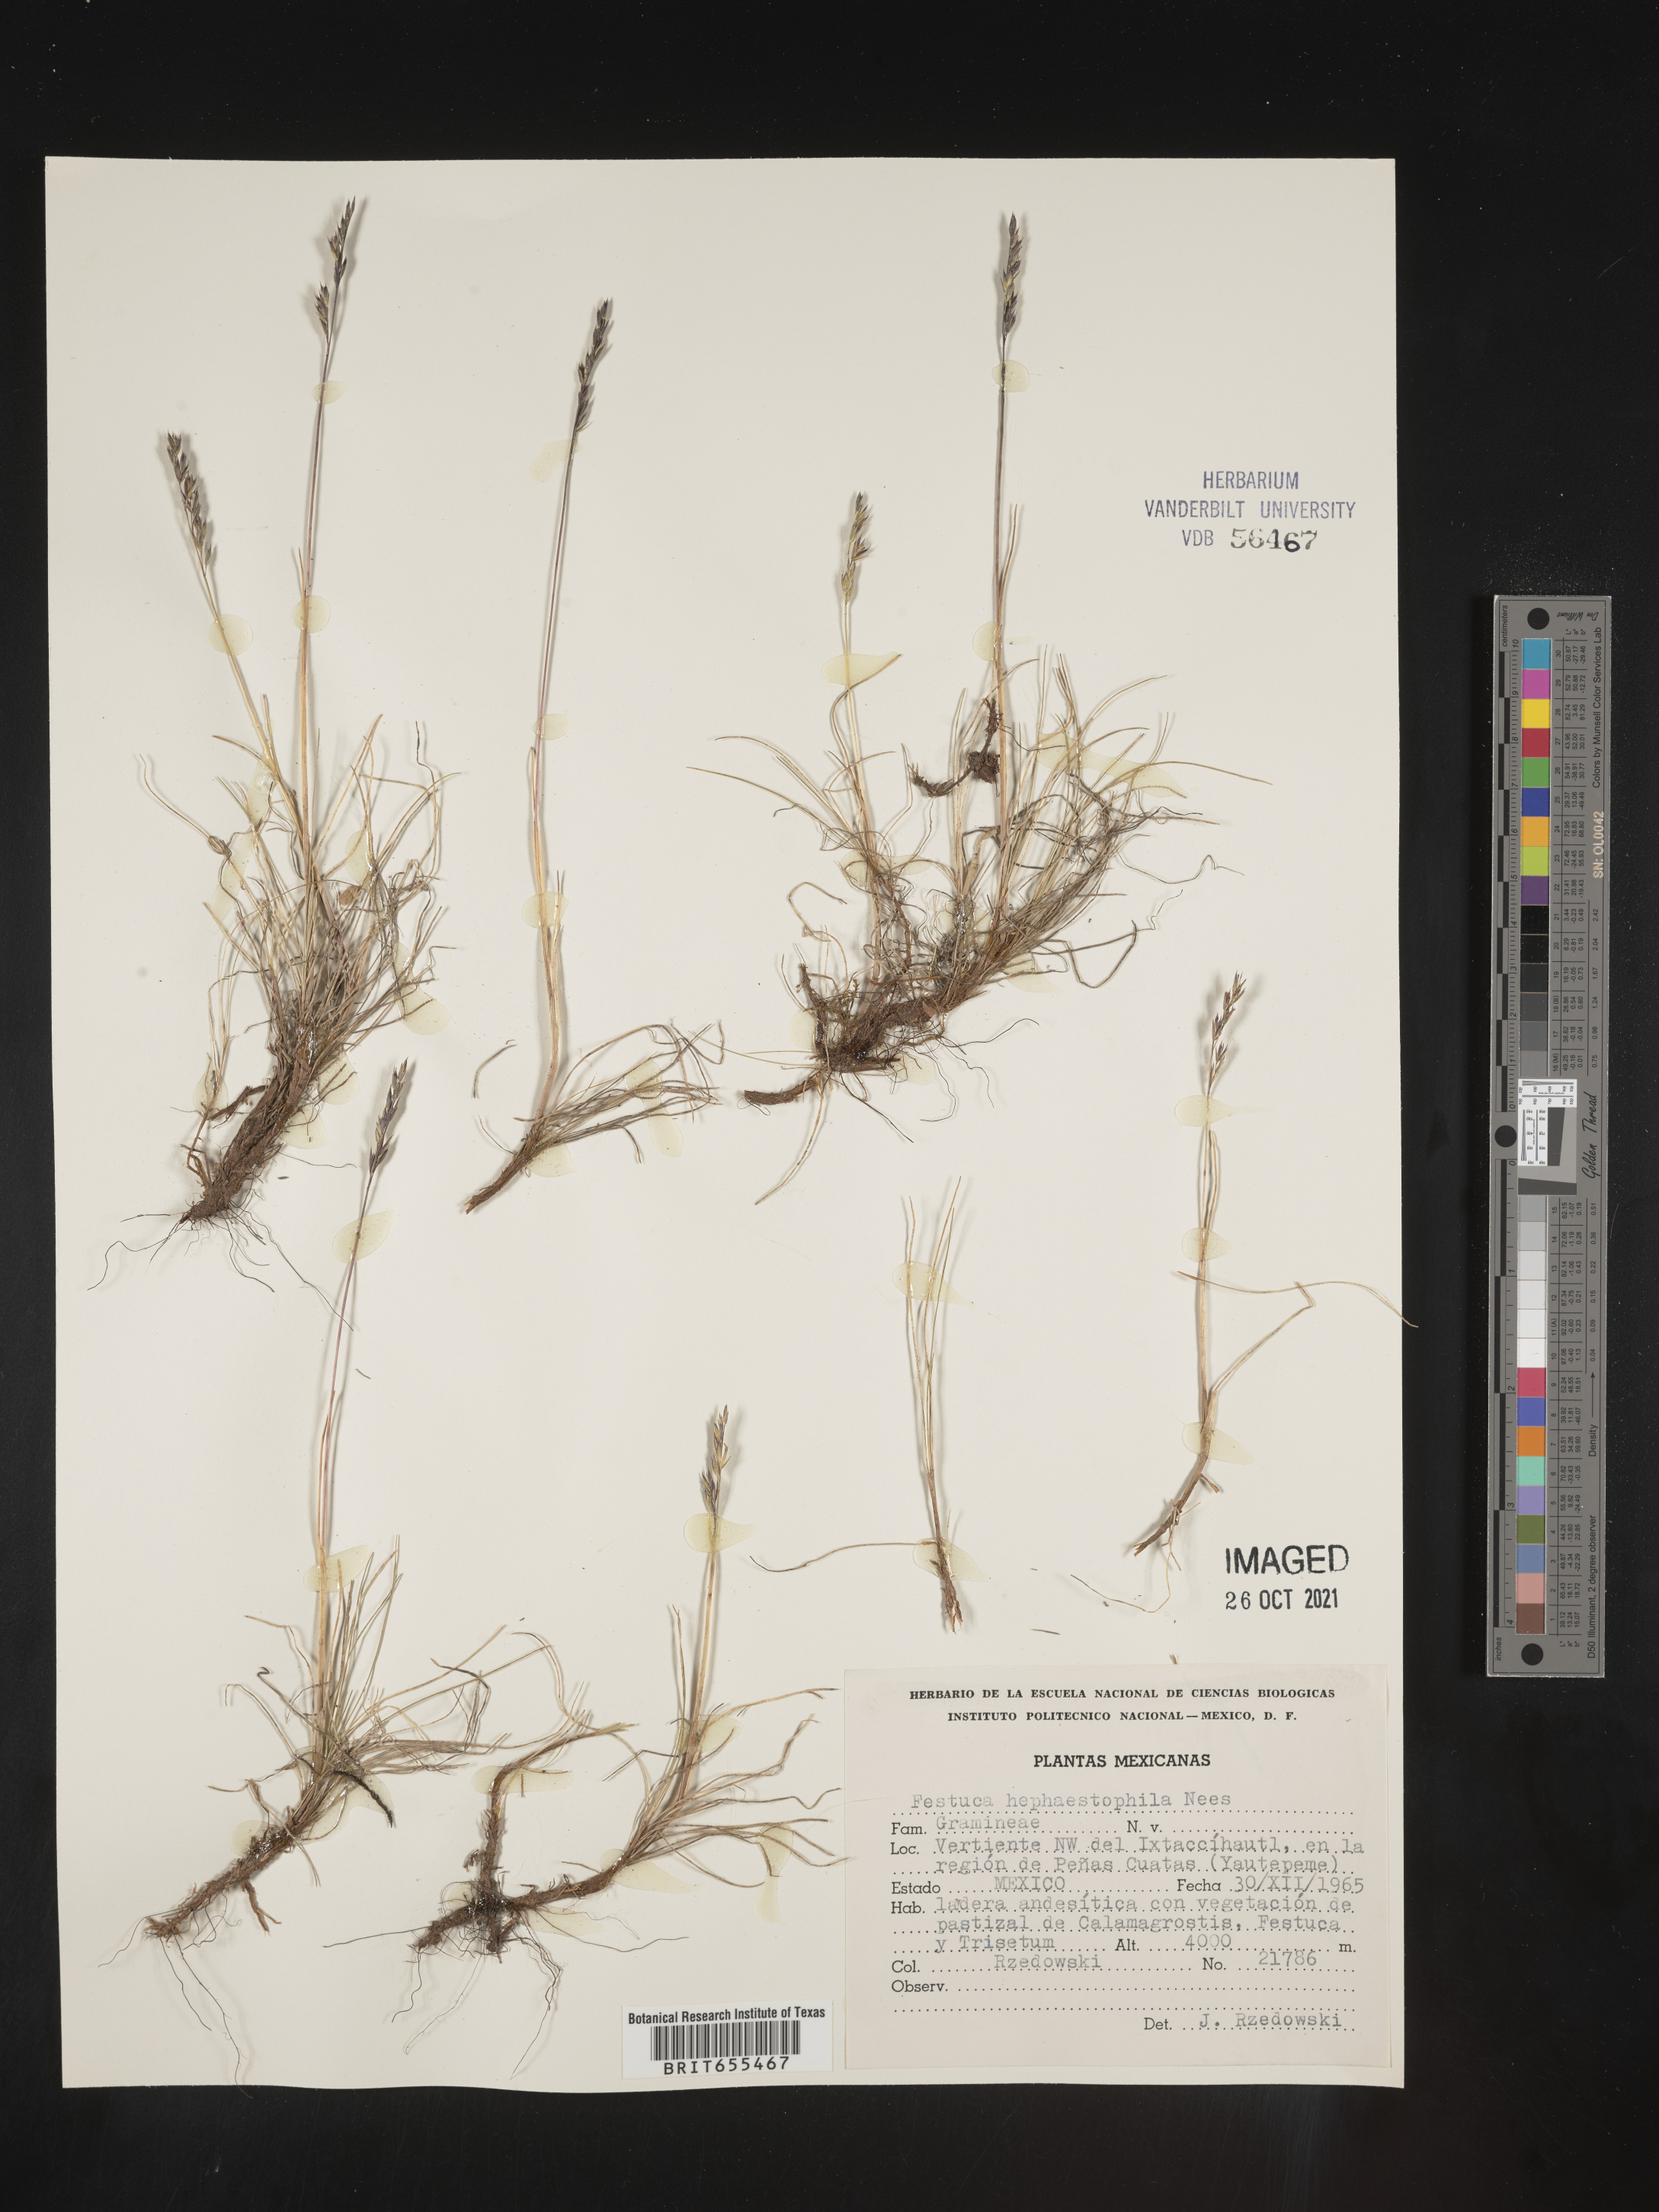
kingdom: Plantae
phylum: Tracheophyta
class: Liliopsida
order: Poales
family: Poaceae
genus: Festuca
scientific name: Festuca
